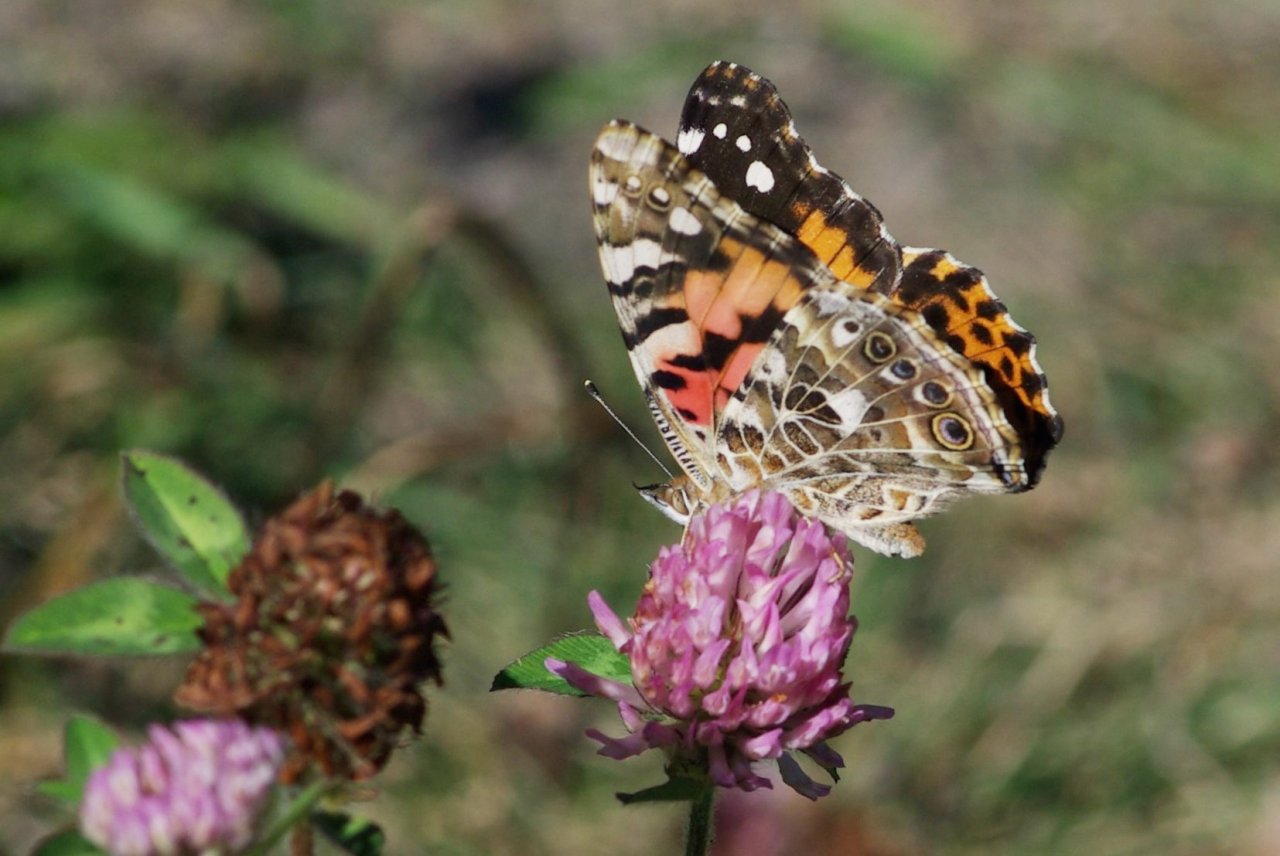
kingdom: Animalia
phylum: Arthropoda
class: Insecta
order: Lepidoptera
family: Nymphalidae
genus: Vanessa
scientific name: Vanessa cardui
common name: Painted Lady
